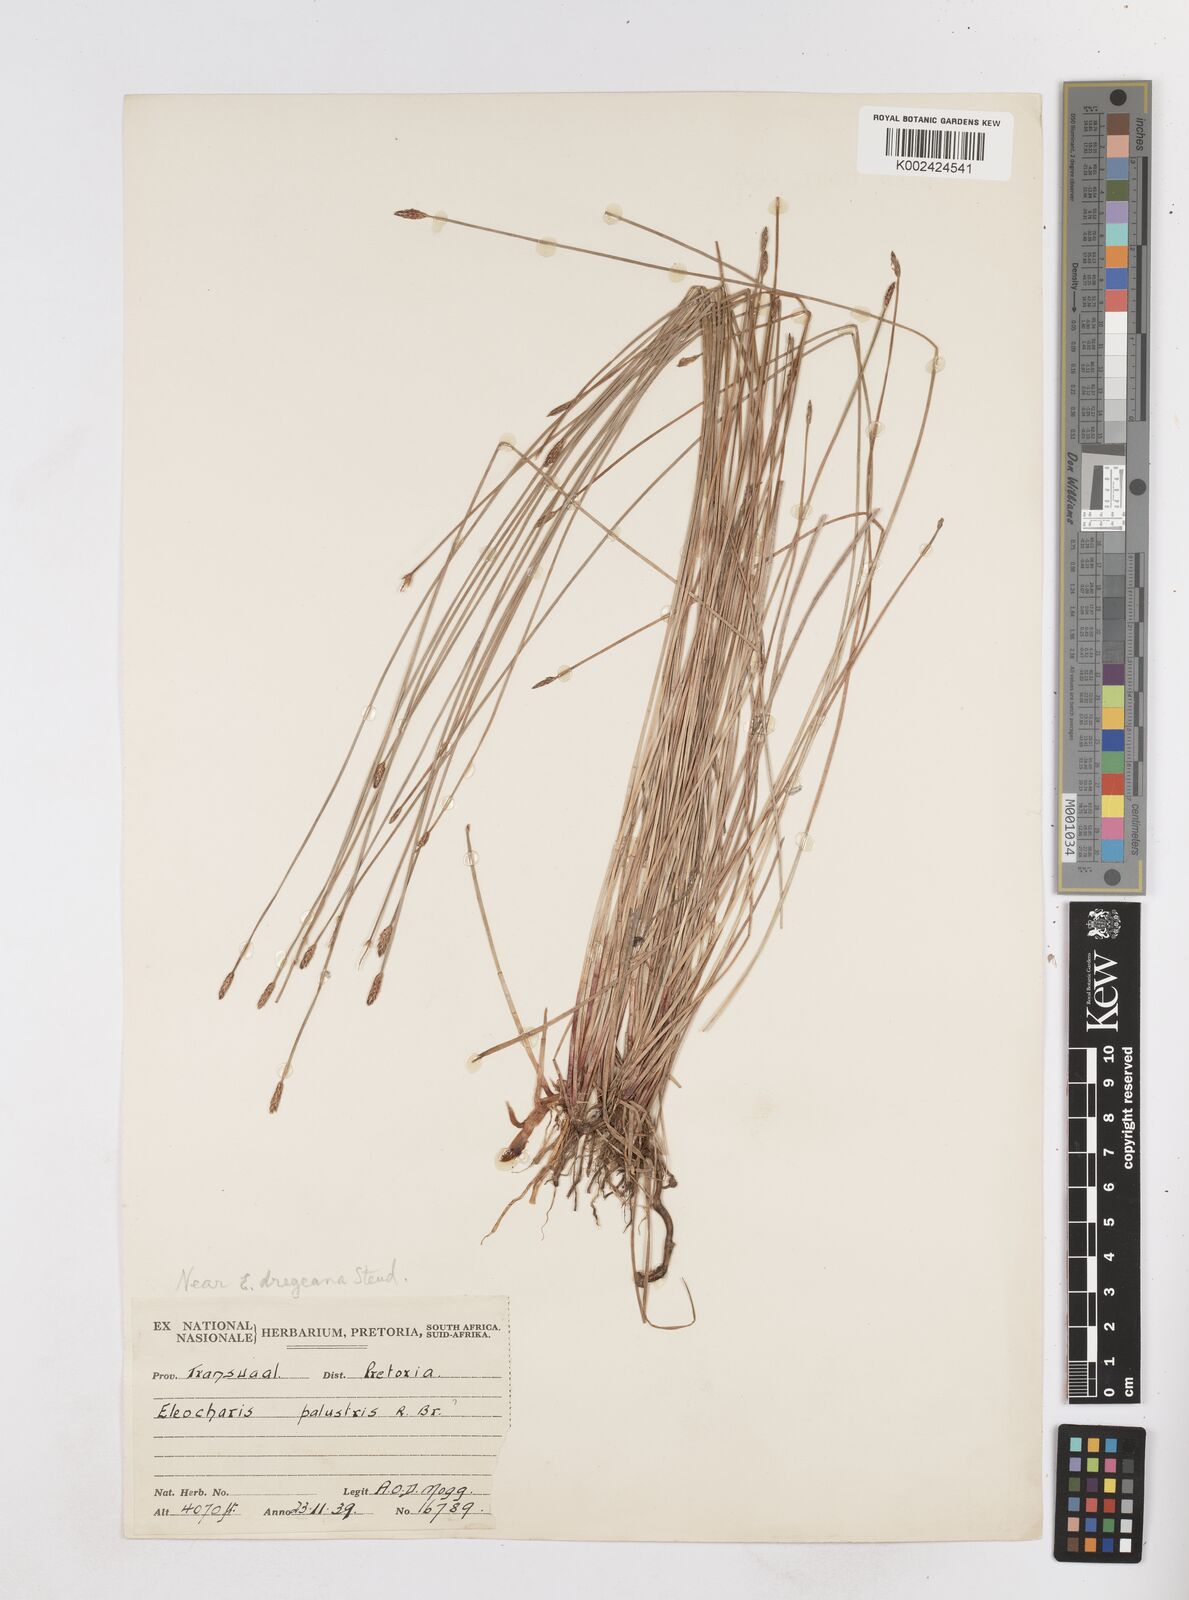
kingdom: Plantae
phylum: Tracheophyta
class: Liliopsida
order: Poales
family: Cyperaceae
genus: Eleocharis
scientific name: Eleocharis palustris
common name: Common spike-rush
